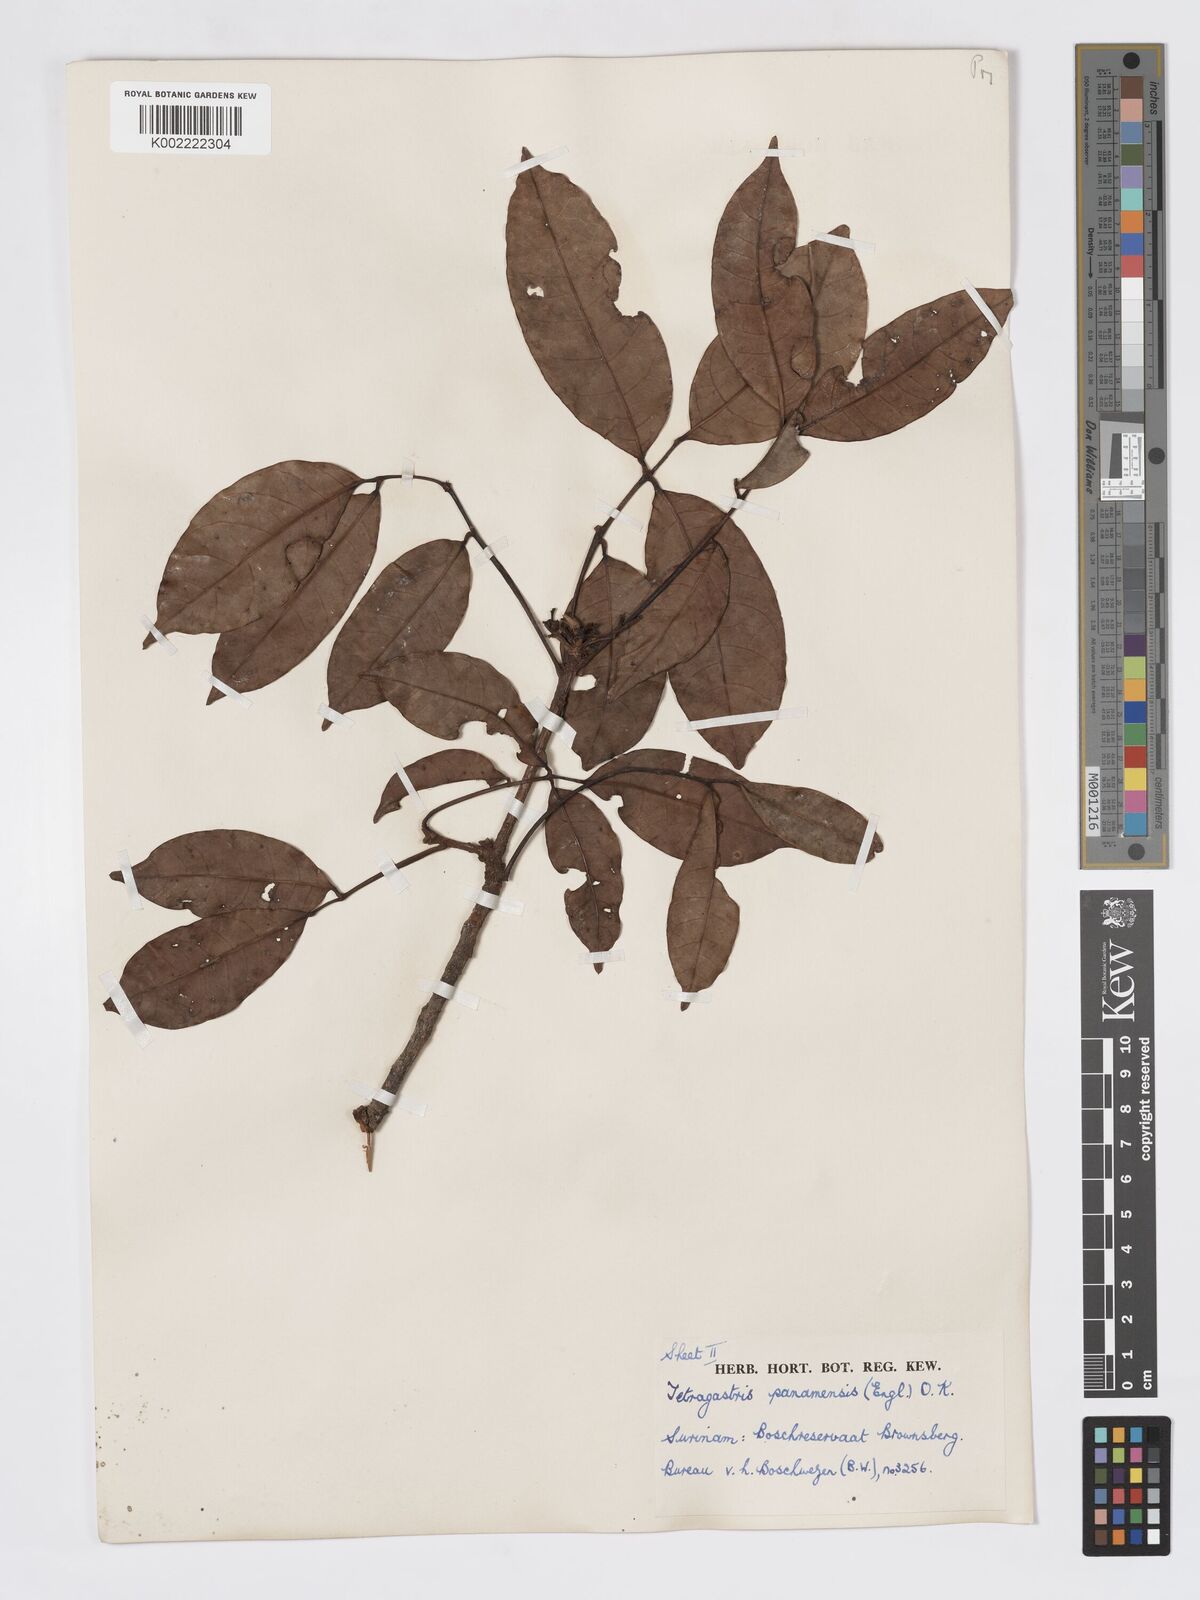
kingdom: Plantae
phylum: Tracheophyta
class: Magnoliopsida
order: Sapindales
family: Burseraceae
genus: Tetragastris
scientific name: Tetragastris panamensis
